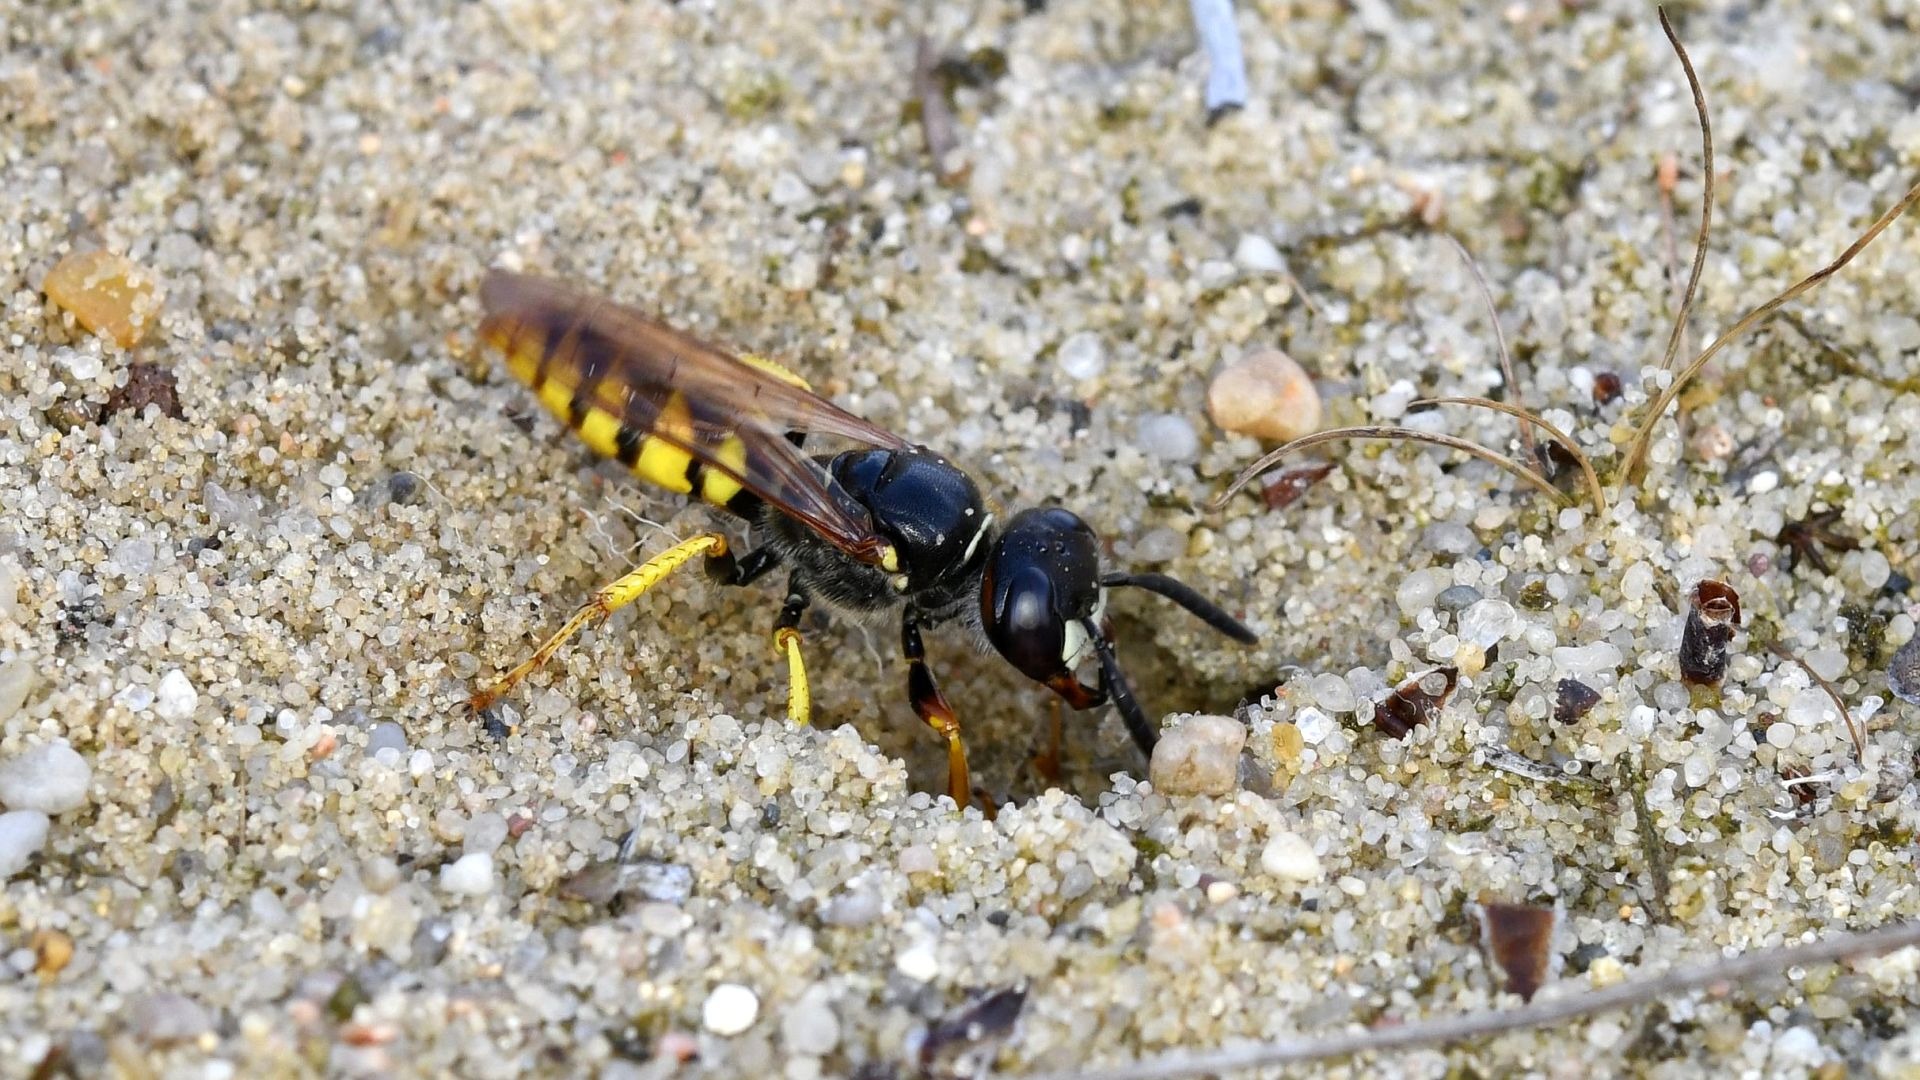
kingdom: Animalia
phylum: Arthropoda
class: Insecta
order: Hymenoptera
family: Crabronidae
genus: Philanthus
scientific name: Philanthus triangulum
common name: Biulv
